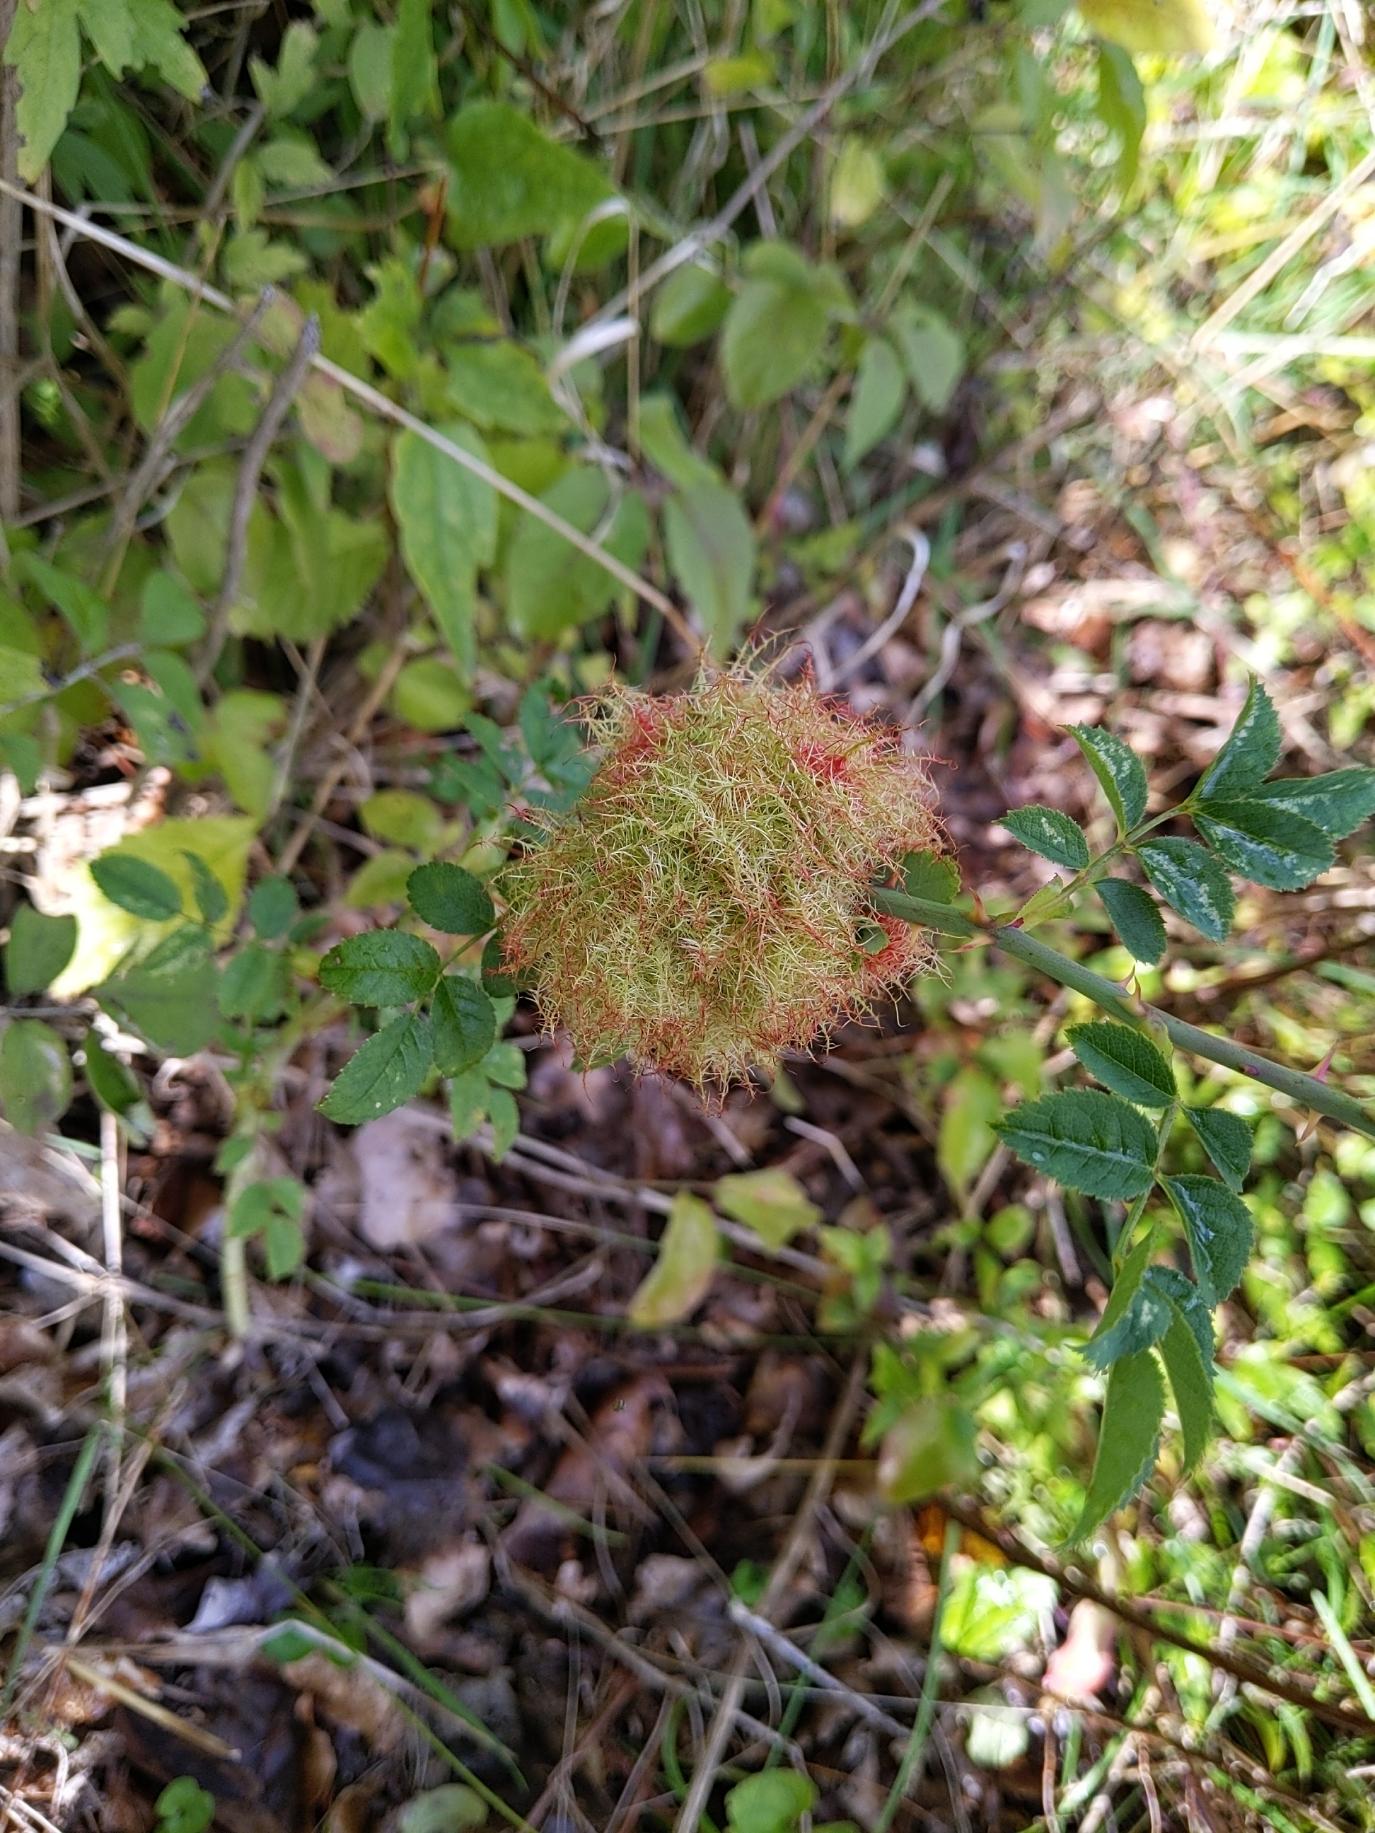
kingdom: Animalia
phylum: Arthropoda
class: Insecta
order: Hymenoptera
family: Cynipidae
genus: Diplolepis
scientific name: Diplolepis rosae
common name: Bedeguargalhveps
